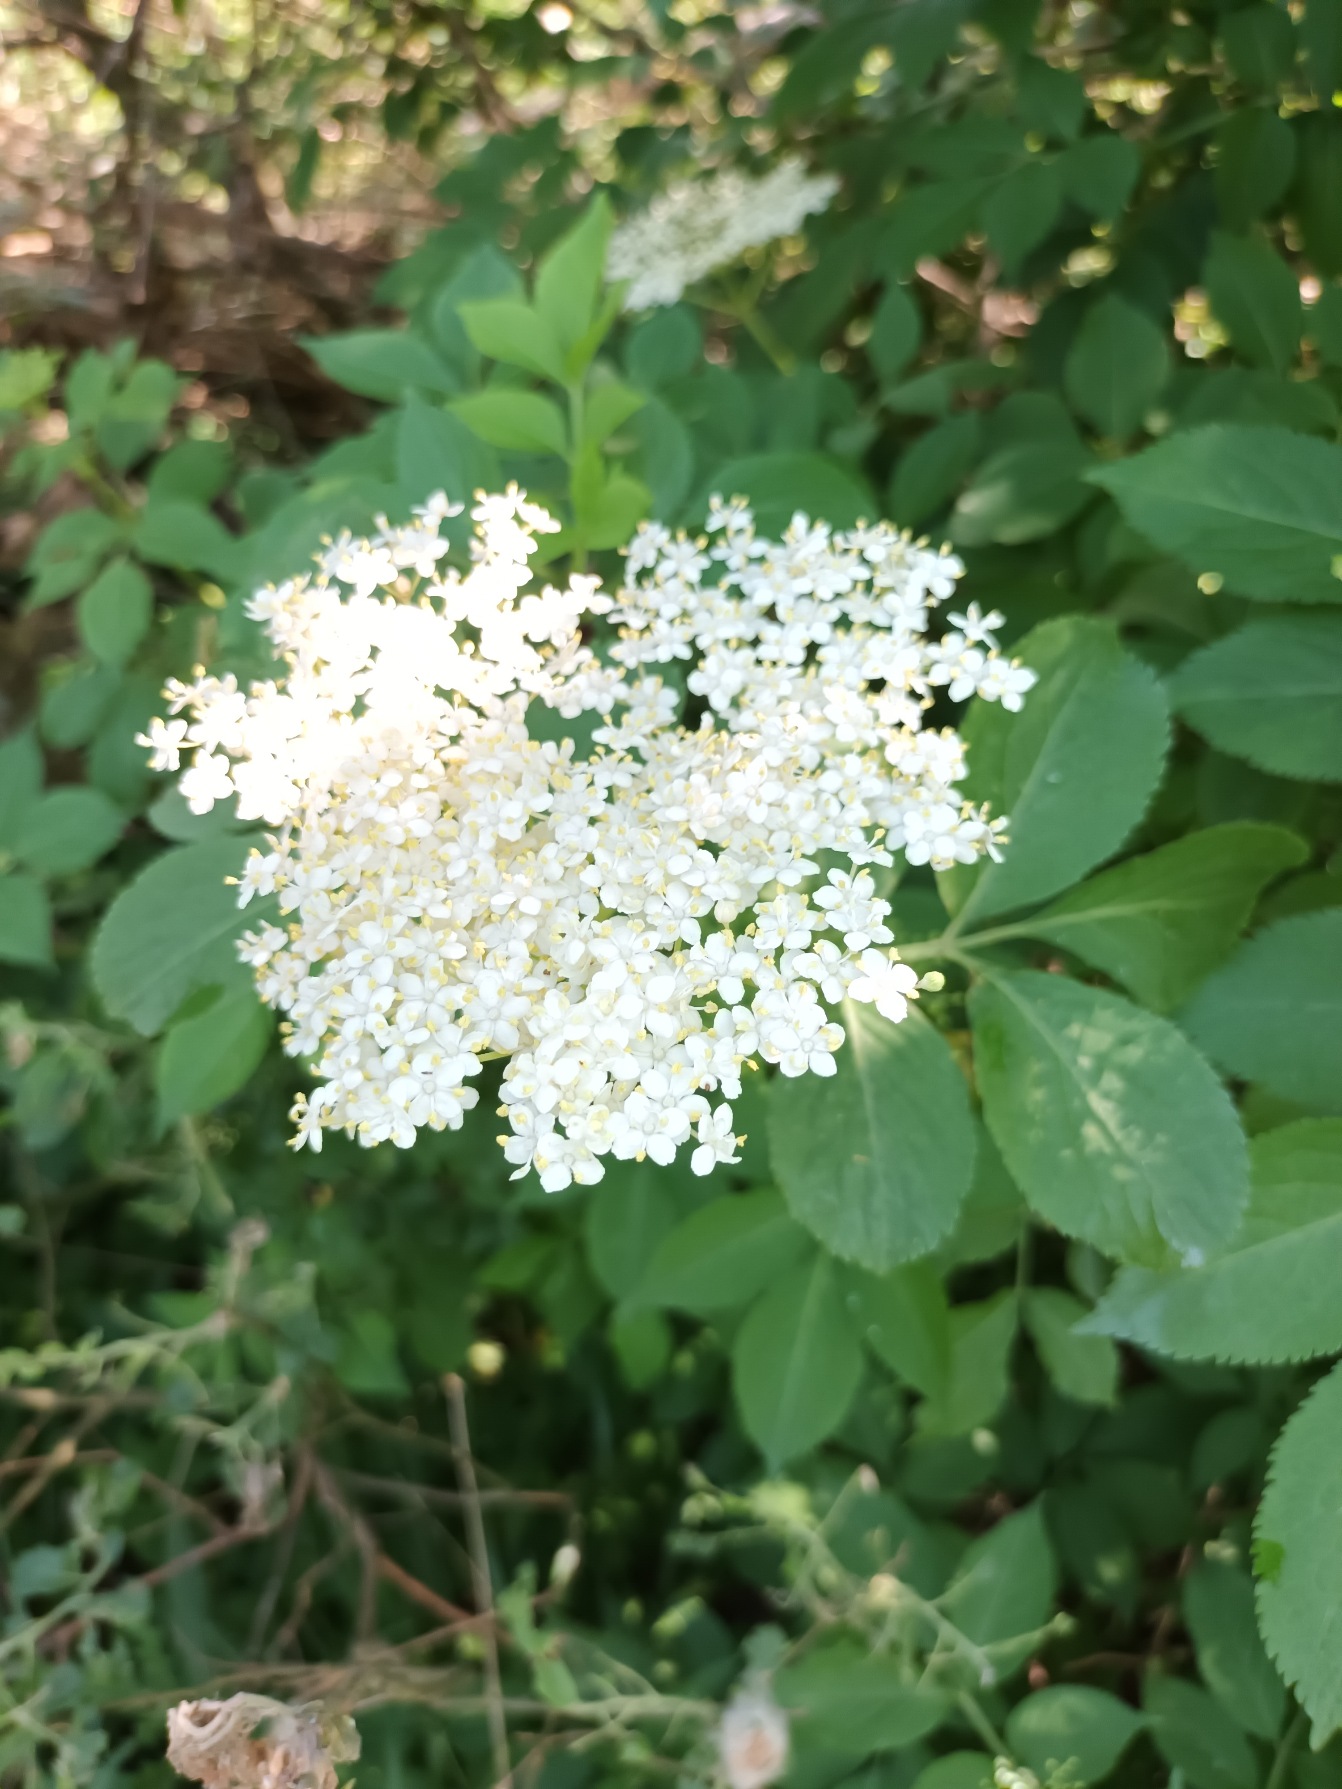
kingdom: Plantae
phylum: Tracheophyta
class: Magnoliopsida
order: Dipsacales
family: Viburnaceae
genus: Sambucus
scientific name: Sambucus nigra
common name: Almindelig hyld
